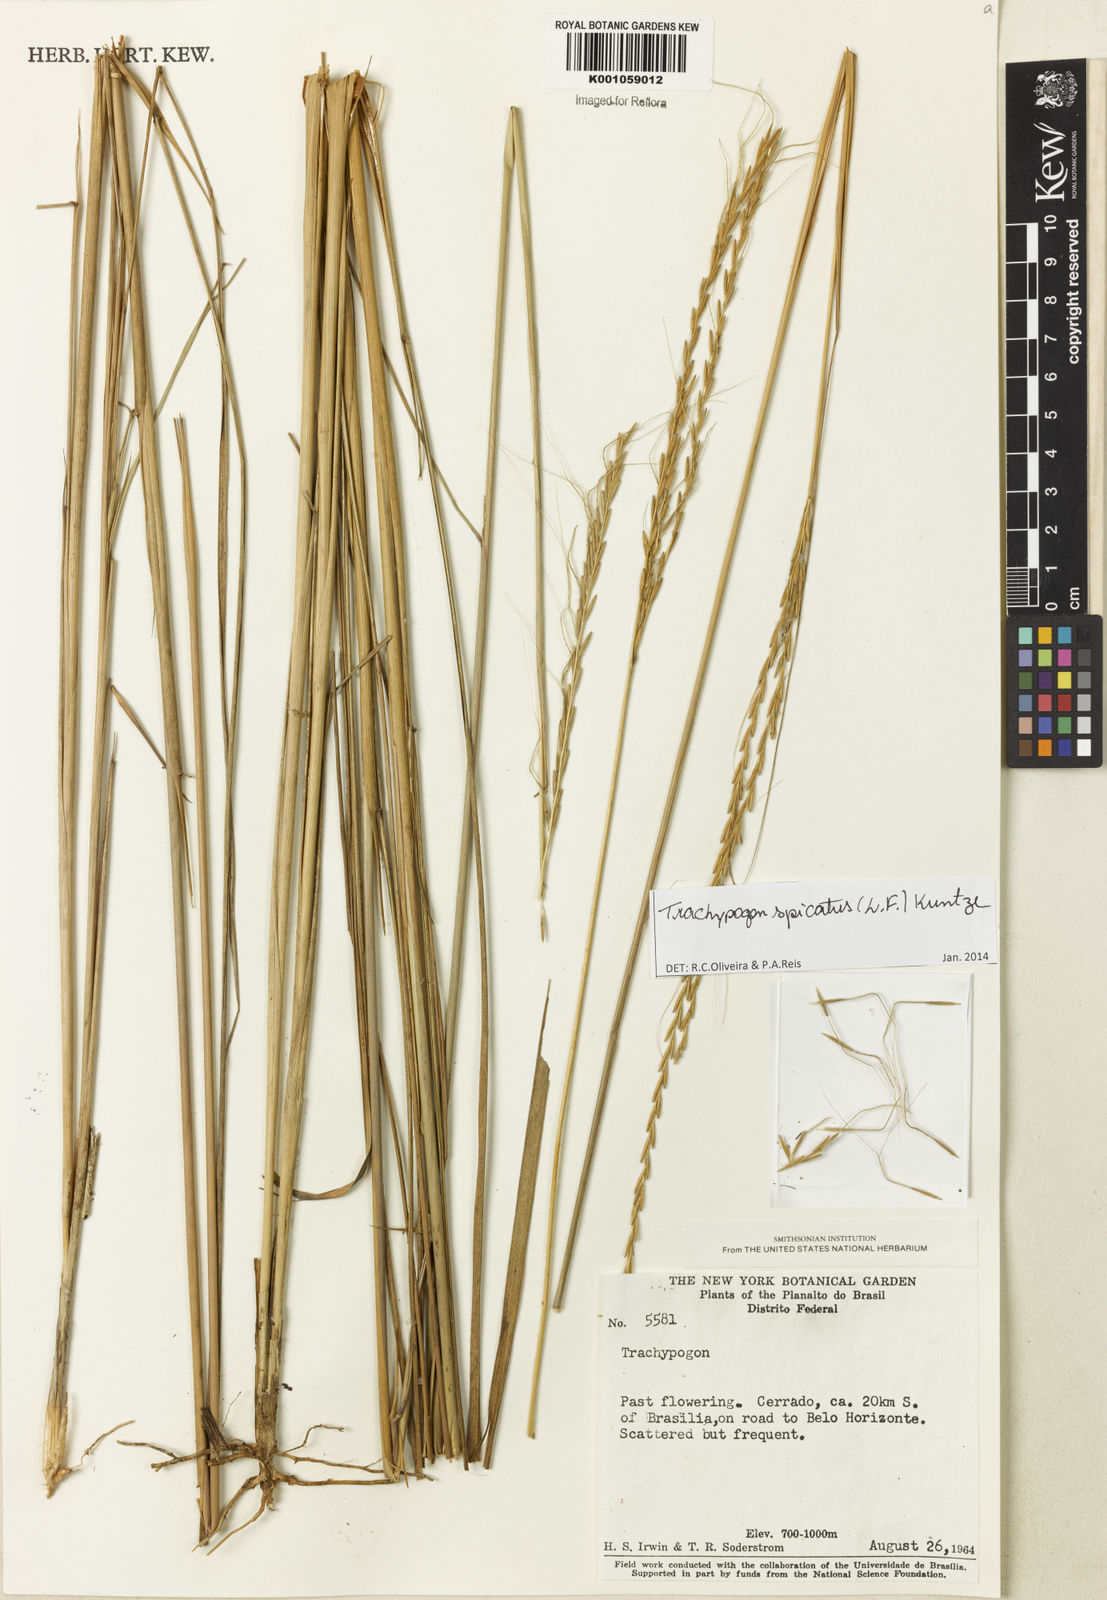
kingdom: Plantae
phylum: Tracheophyta
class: Liliopsida
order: Poales
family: Poaceae
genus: Trachypogon
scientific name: Trachypogon spicatus
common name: Crinkle-awn
